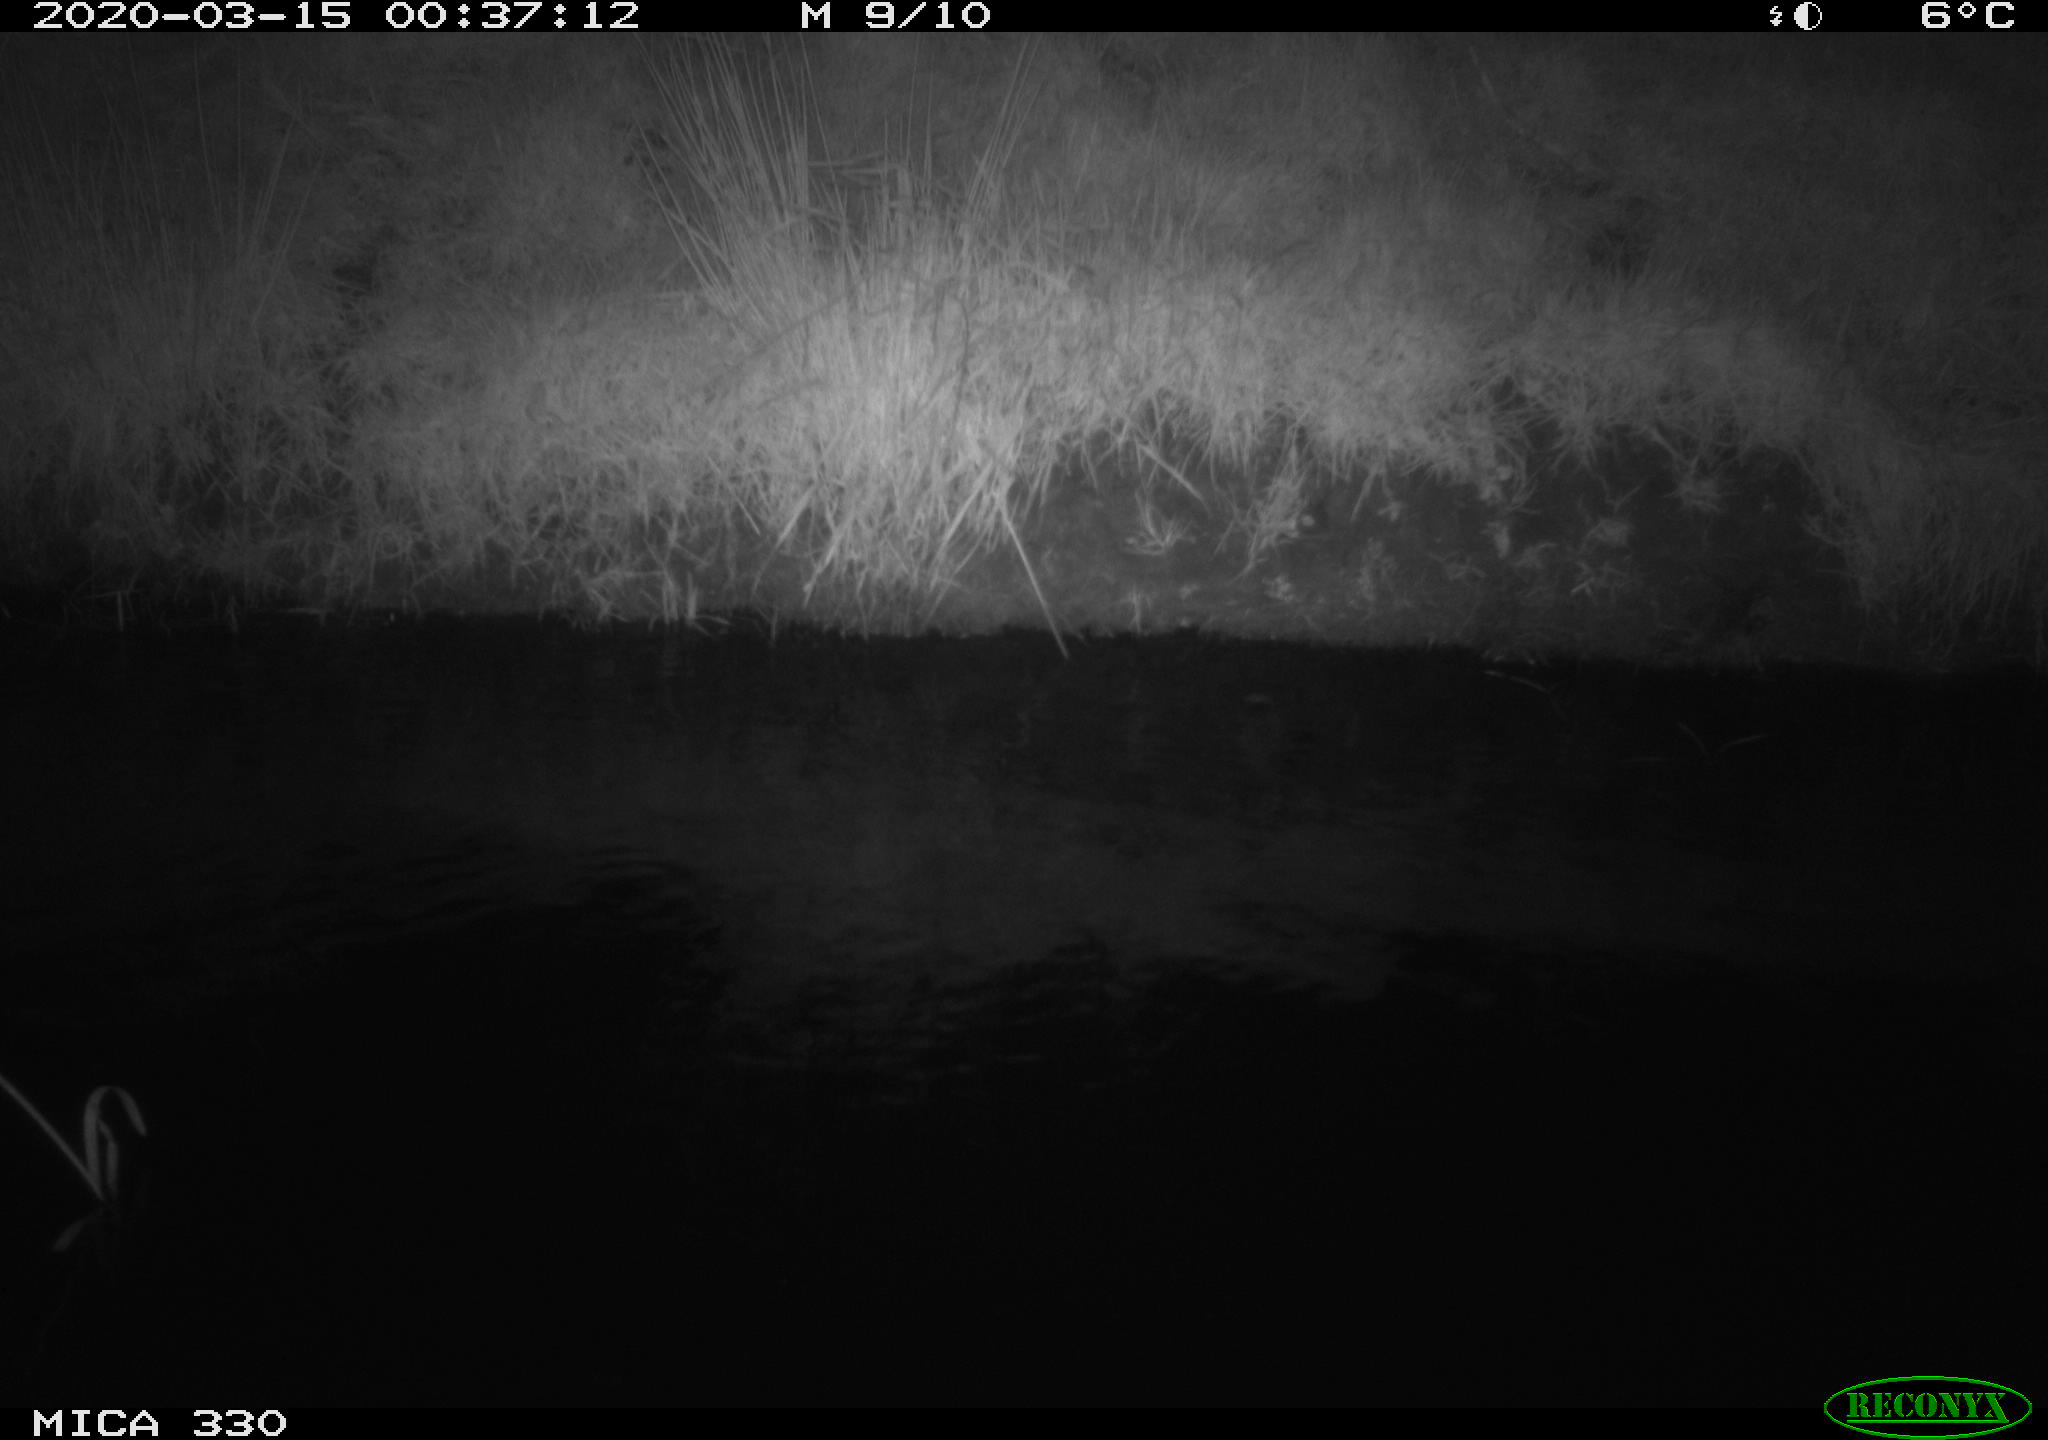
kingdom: Animalia
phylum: Chordata
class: Aves
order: Anseriformes
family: Anatidae
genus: Anas
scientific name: Anas platyrhynchos
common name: Mallard
